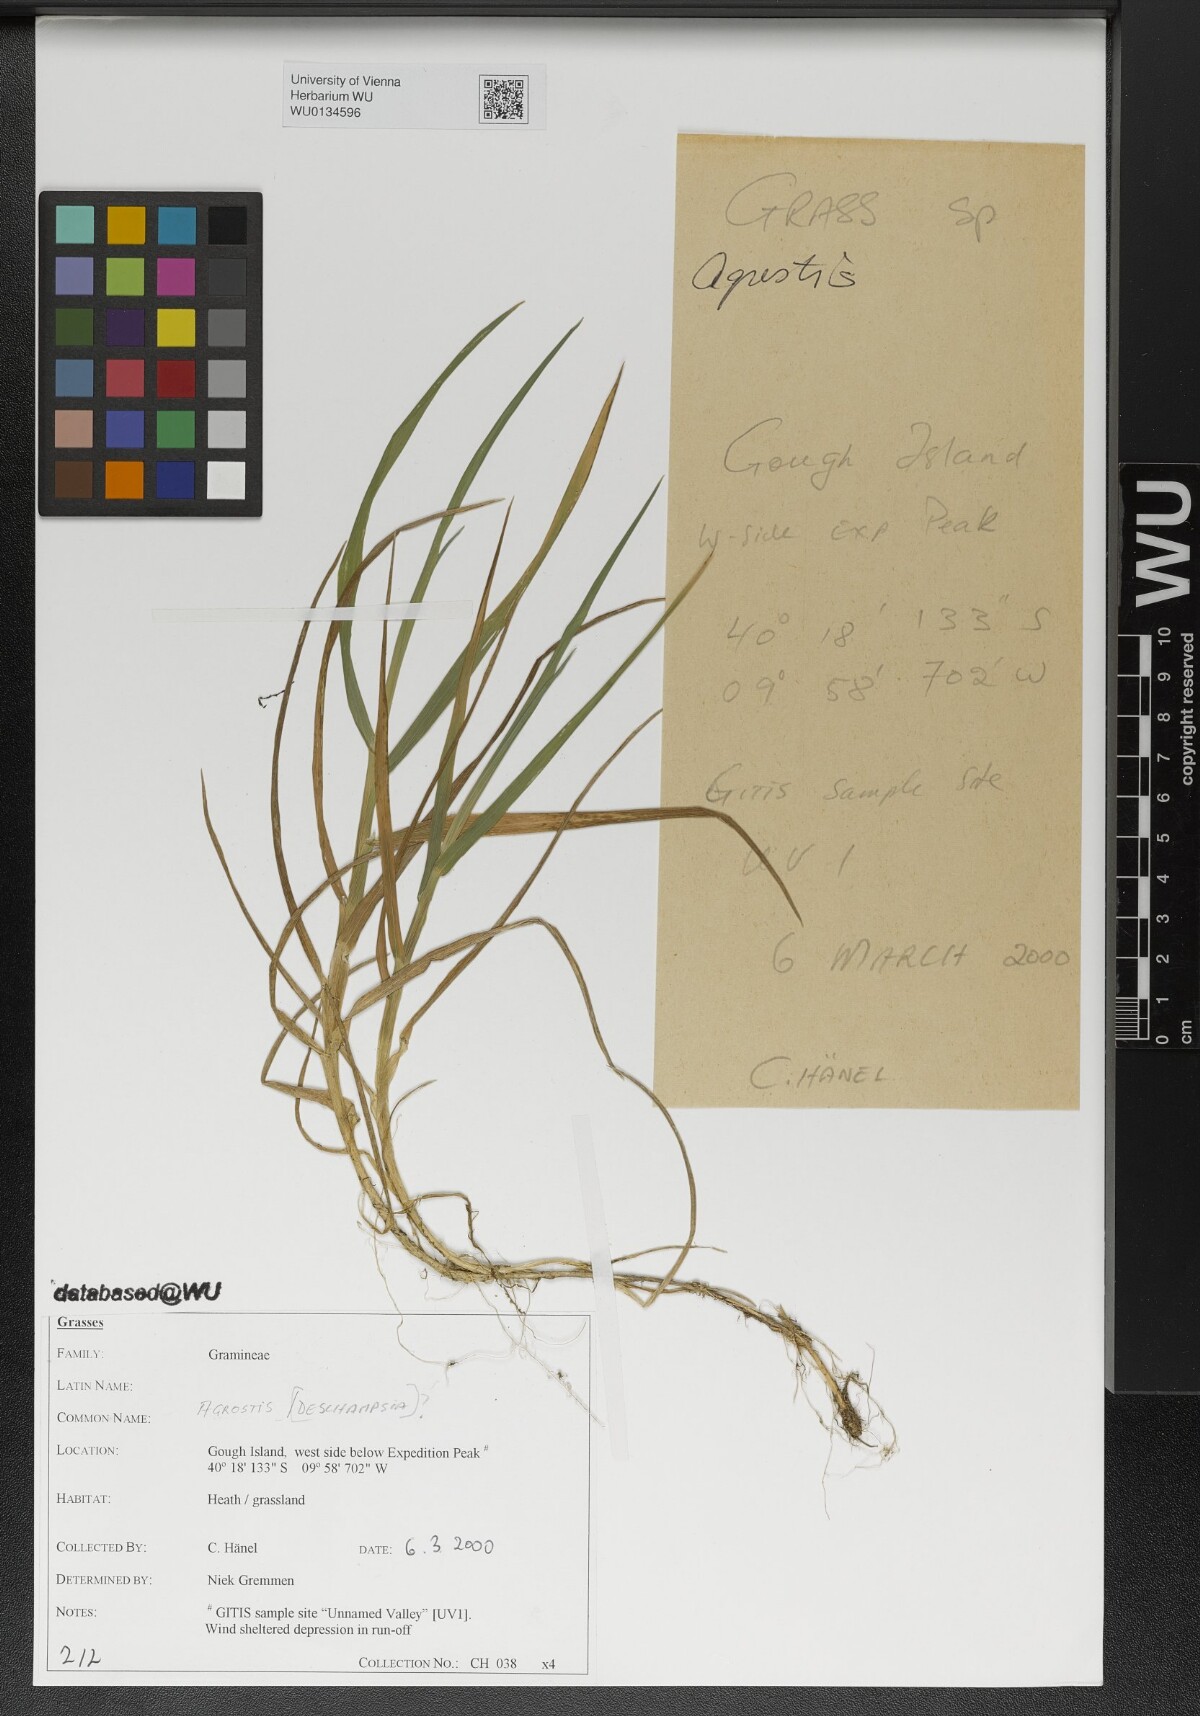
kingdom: Plantae
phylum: Tracheophyta
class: Liliopsida
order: Poales
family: Poaceae
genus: Agrostis
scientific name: Agrostis
